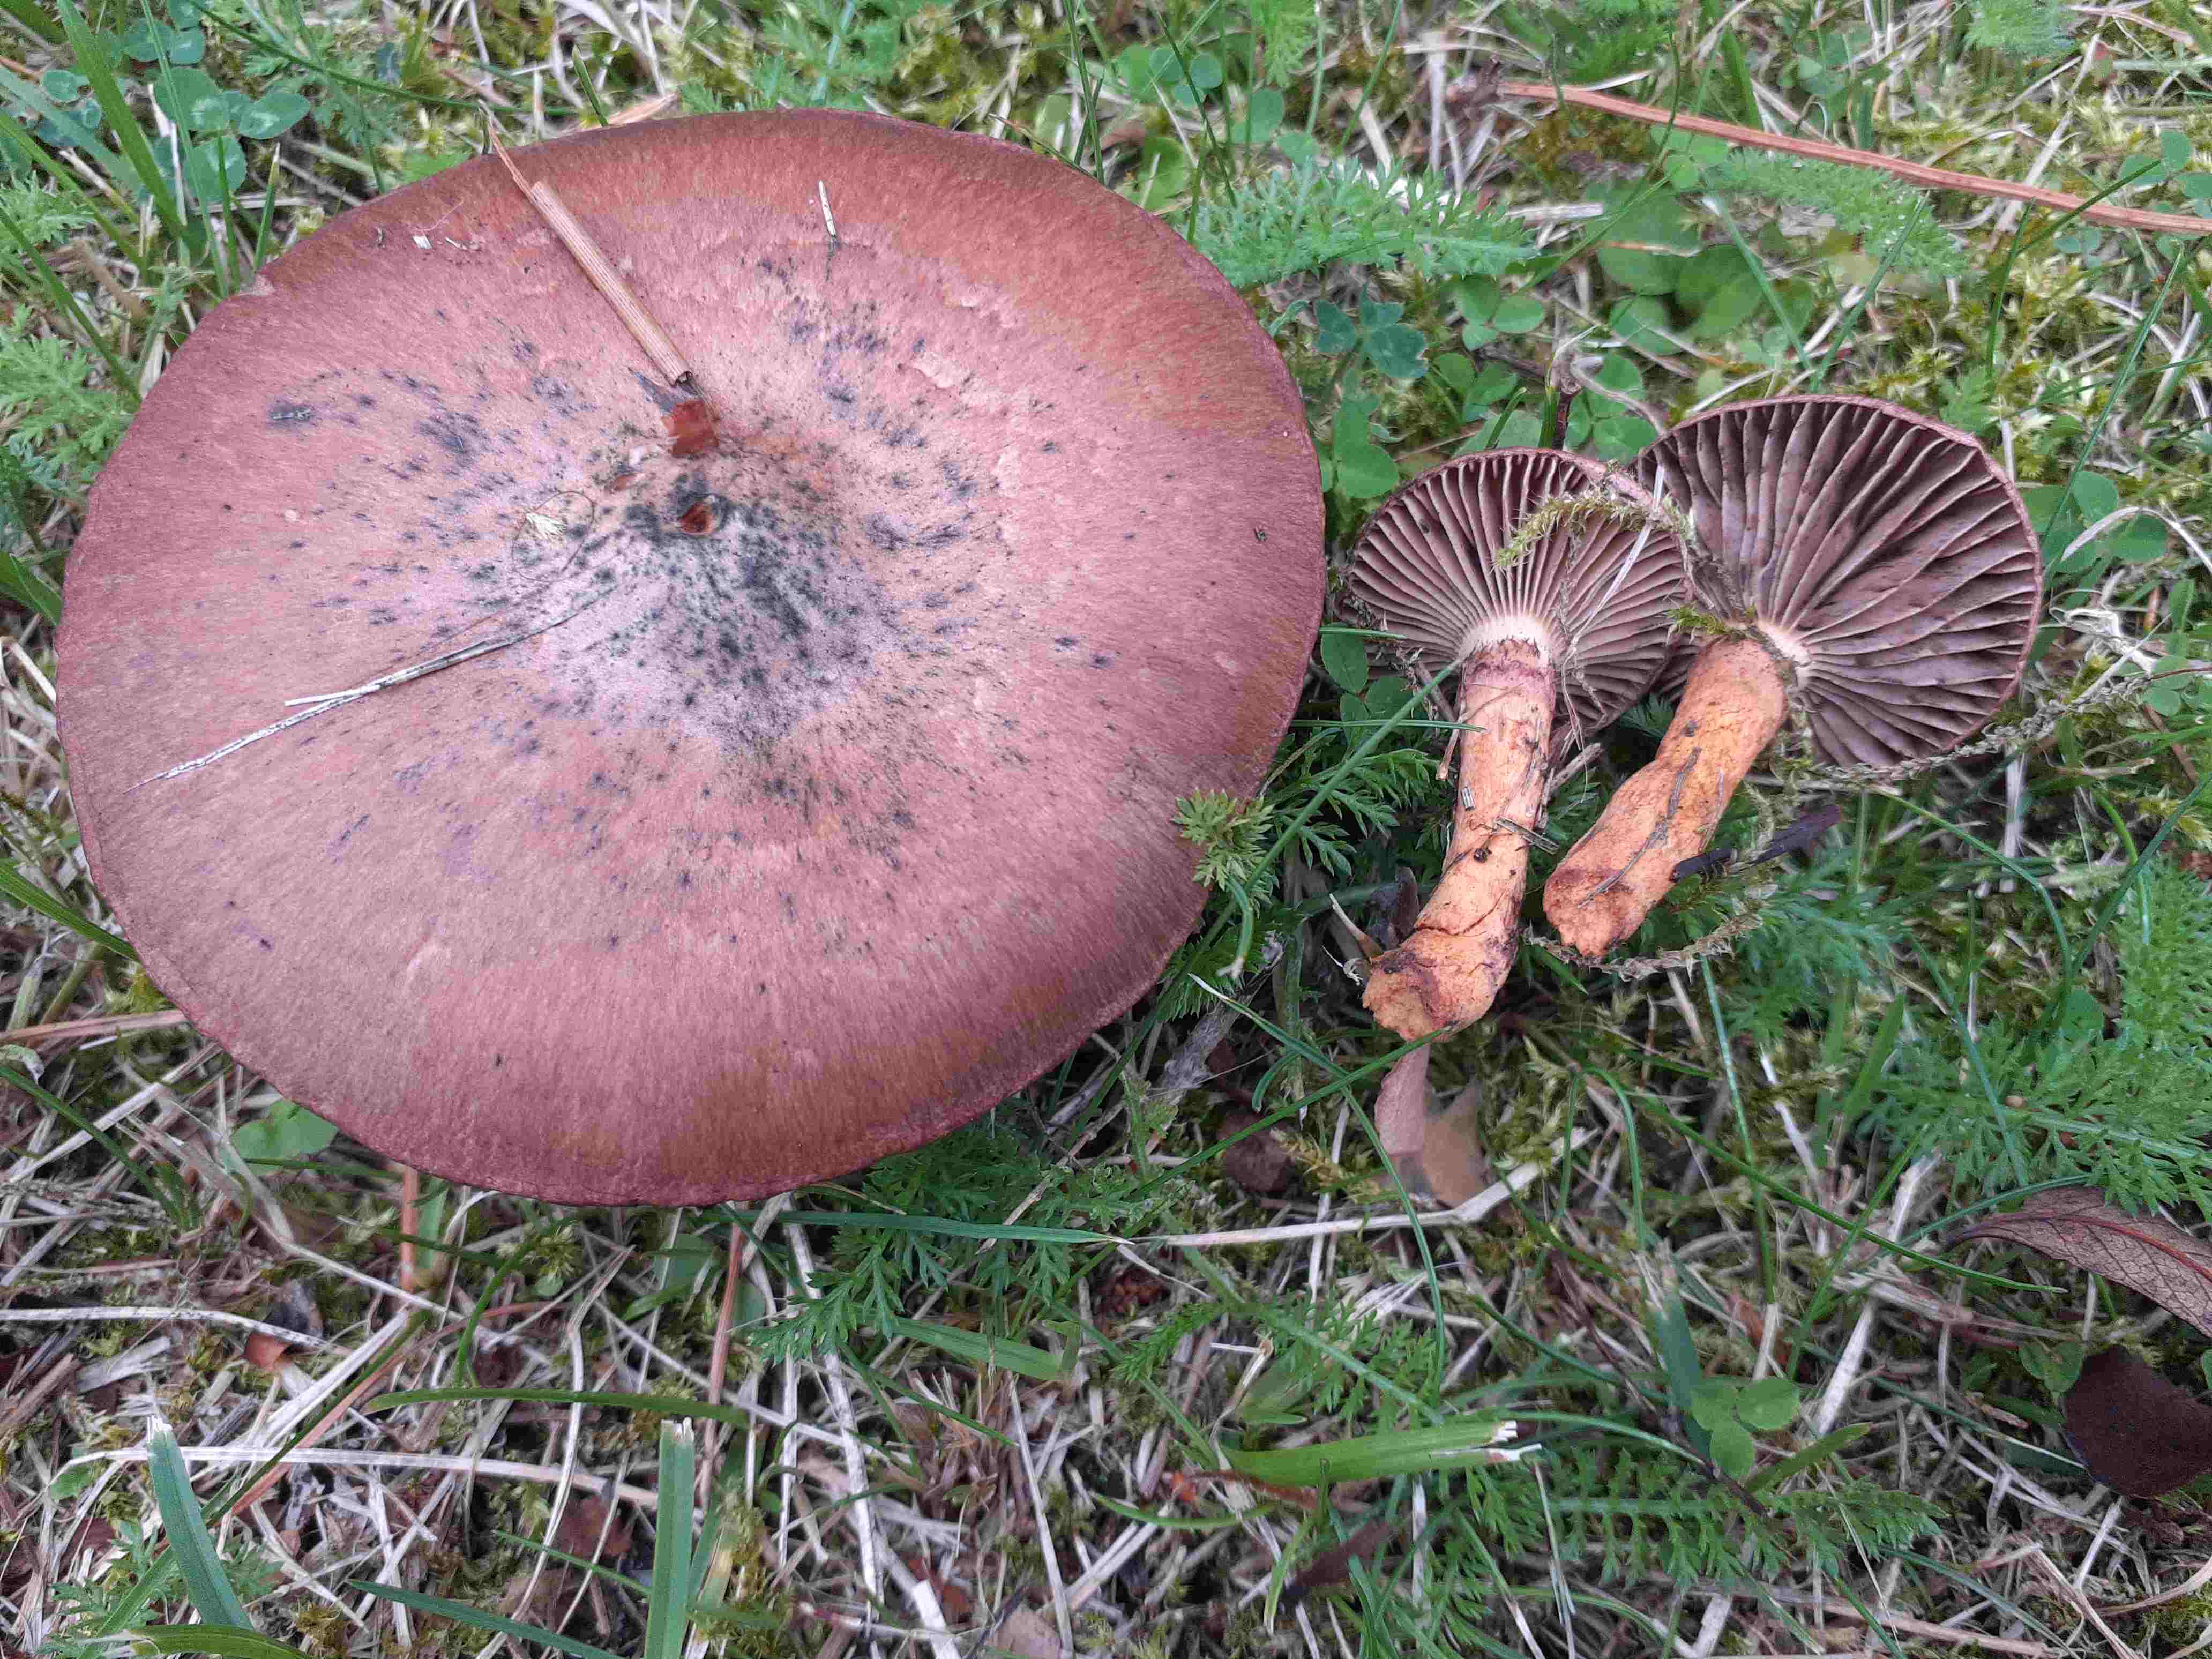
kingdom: Fungi
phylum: Basidiomycota
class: Agaricomycetes
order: Boletales
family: Gomphidiaceae
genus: Chroogomphus
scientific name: Chroogomphus rutilus
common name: brunrød slimslør
